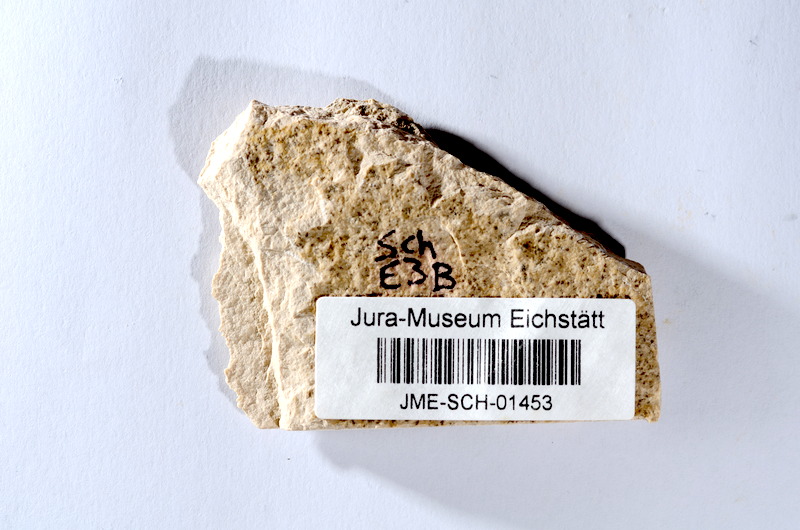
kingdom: Animalia
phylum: Chordata
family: Ascalaboidae
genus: Tharsis
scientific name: Tharsis dubius
